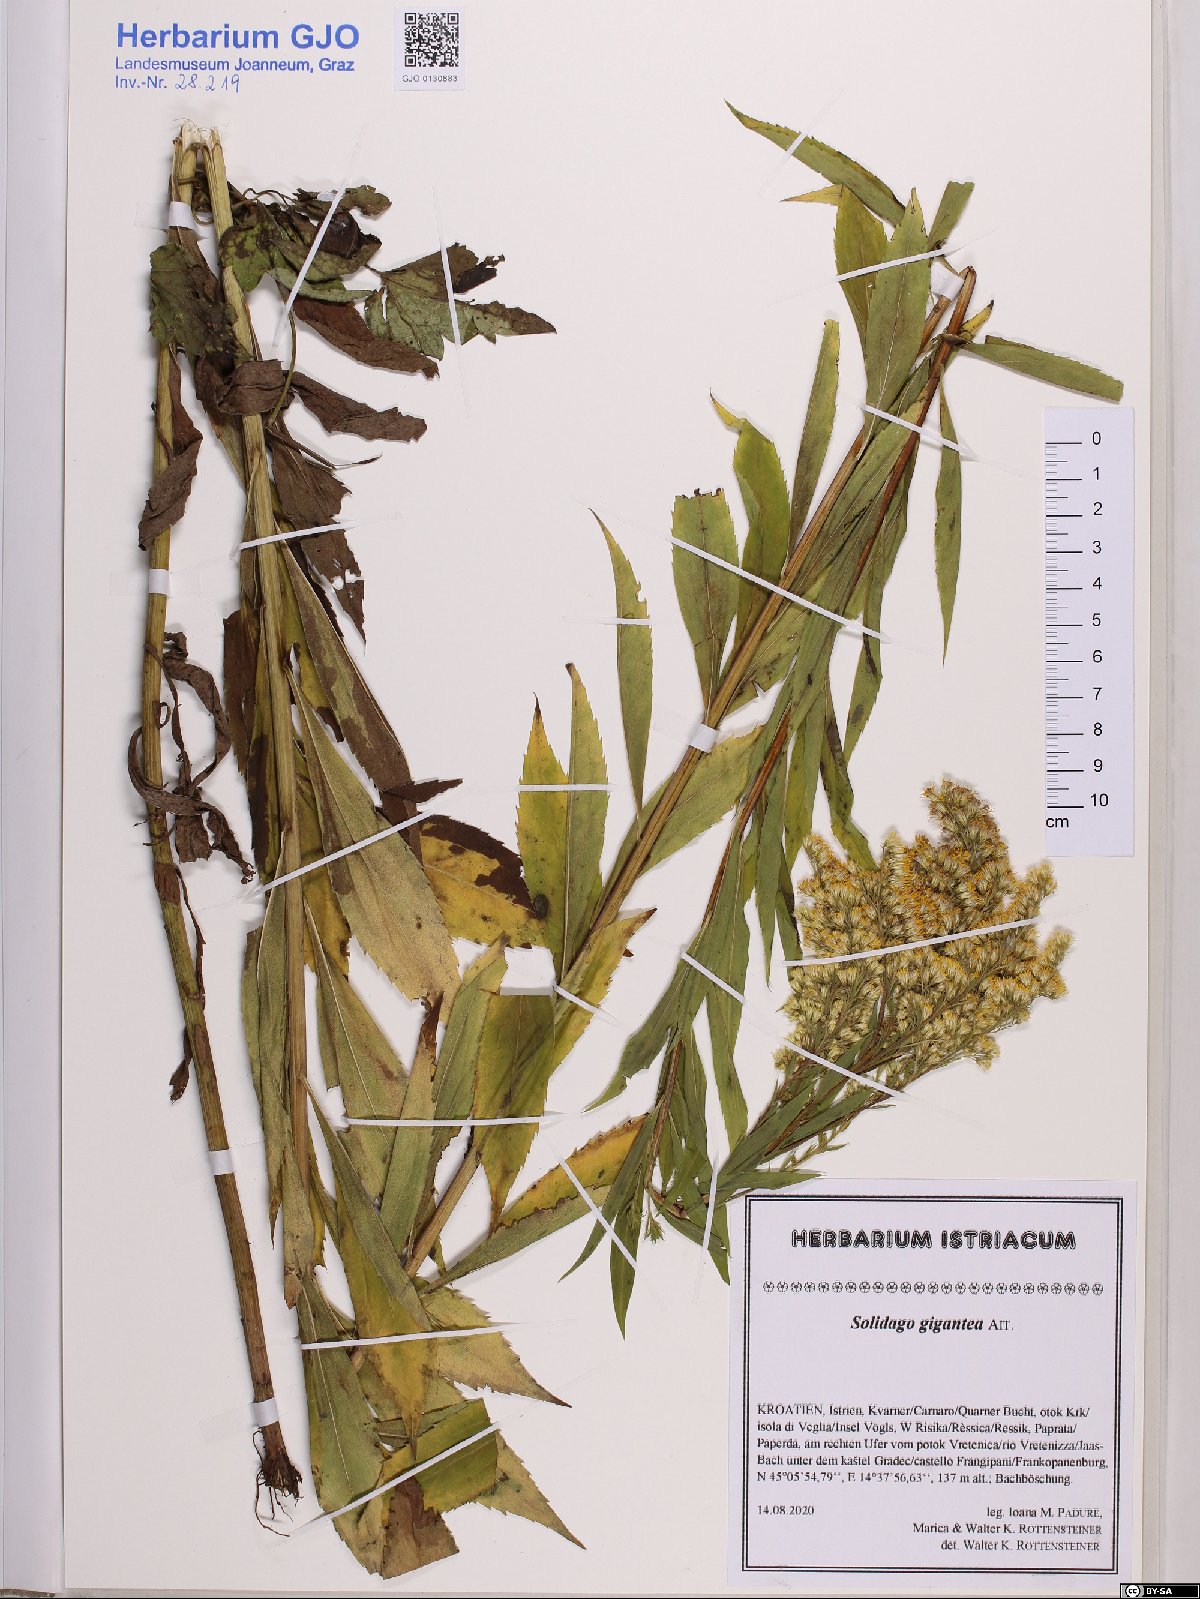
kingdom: Plantae
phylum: Tracheophyta
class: Magnoliopsida
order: Asterales
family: Asteraceae
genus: Solidago
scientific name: Solidago gigantea
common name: Giant goldenrod
